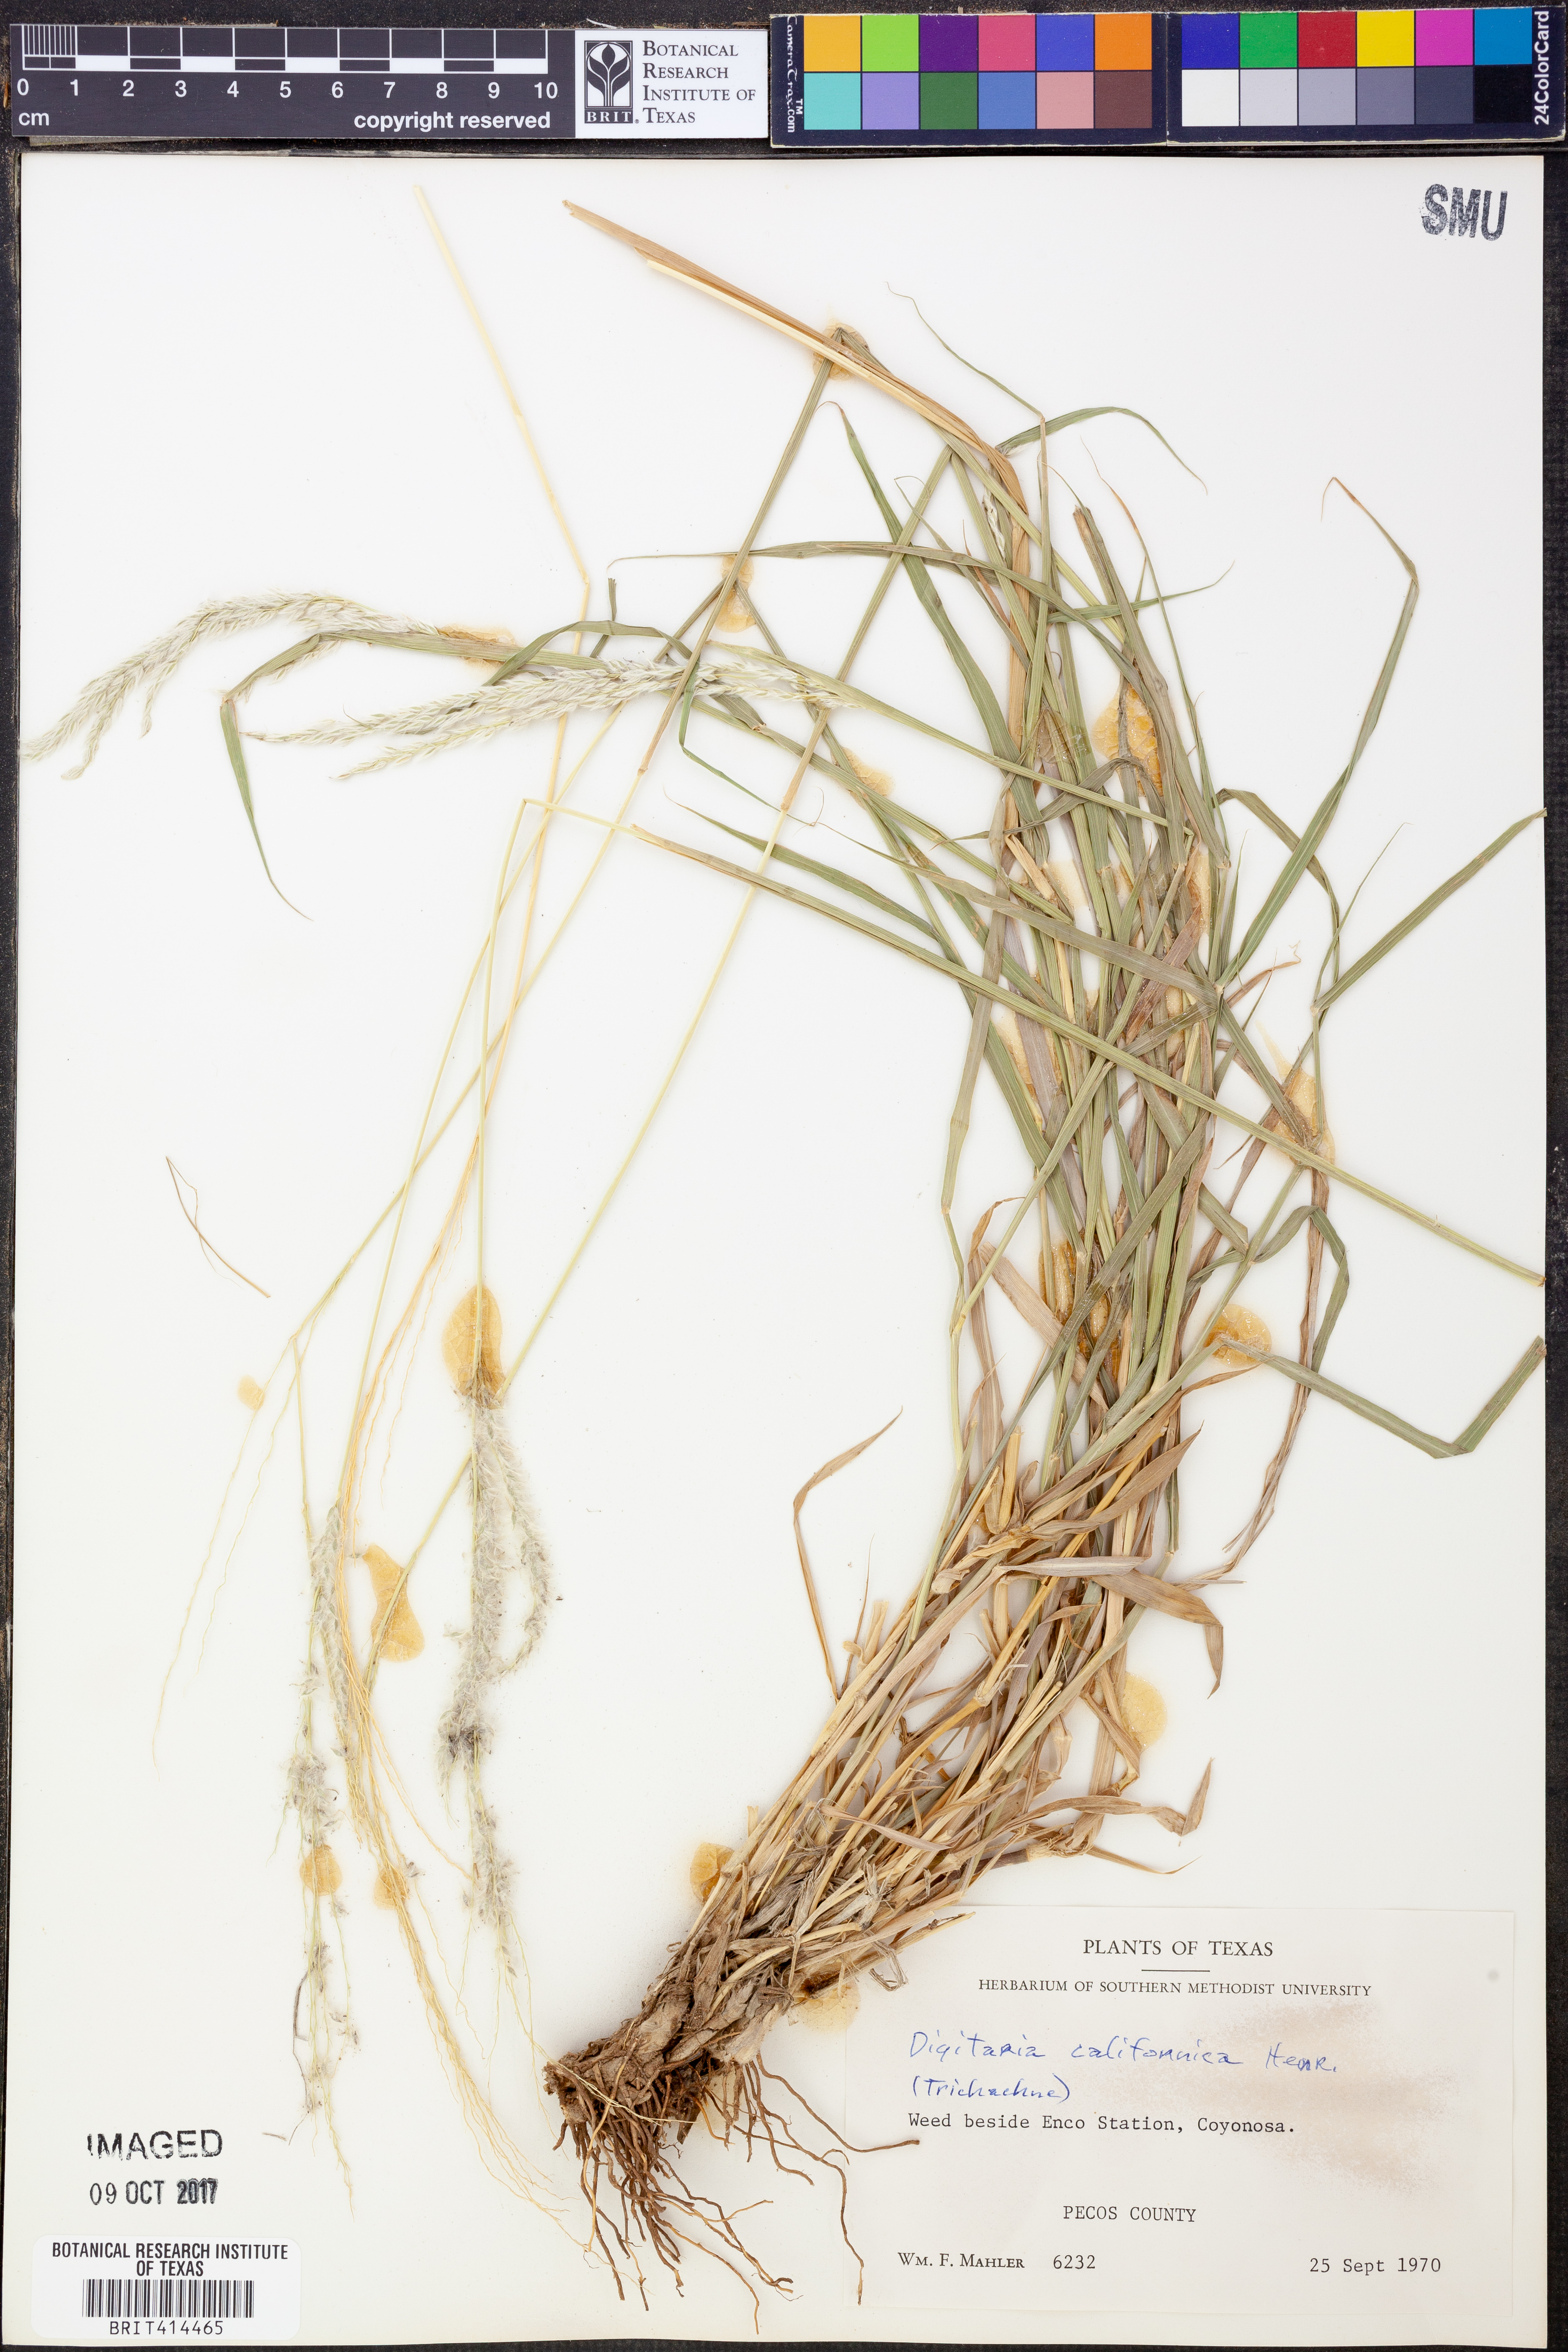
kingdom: Plantae
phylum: Tracheophyta
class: Liliopsida
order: Poales
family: Poaceae
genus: Digitaria
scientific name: Digitaria californica
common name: Arizona cottontop
